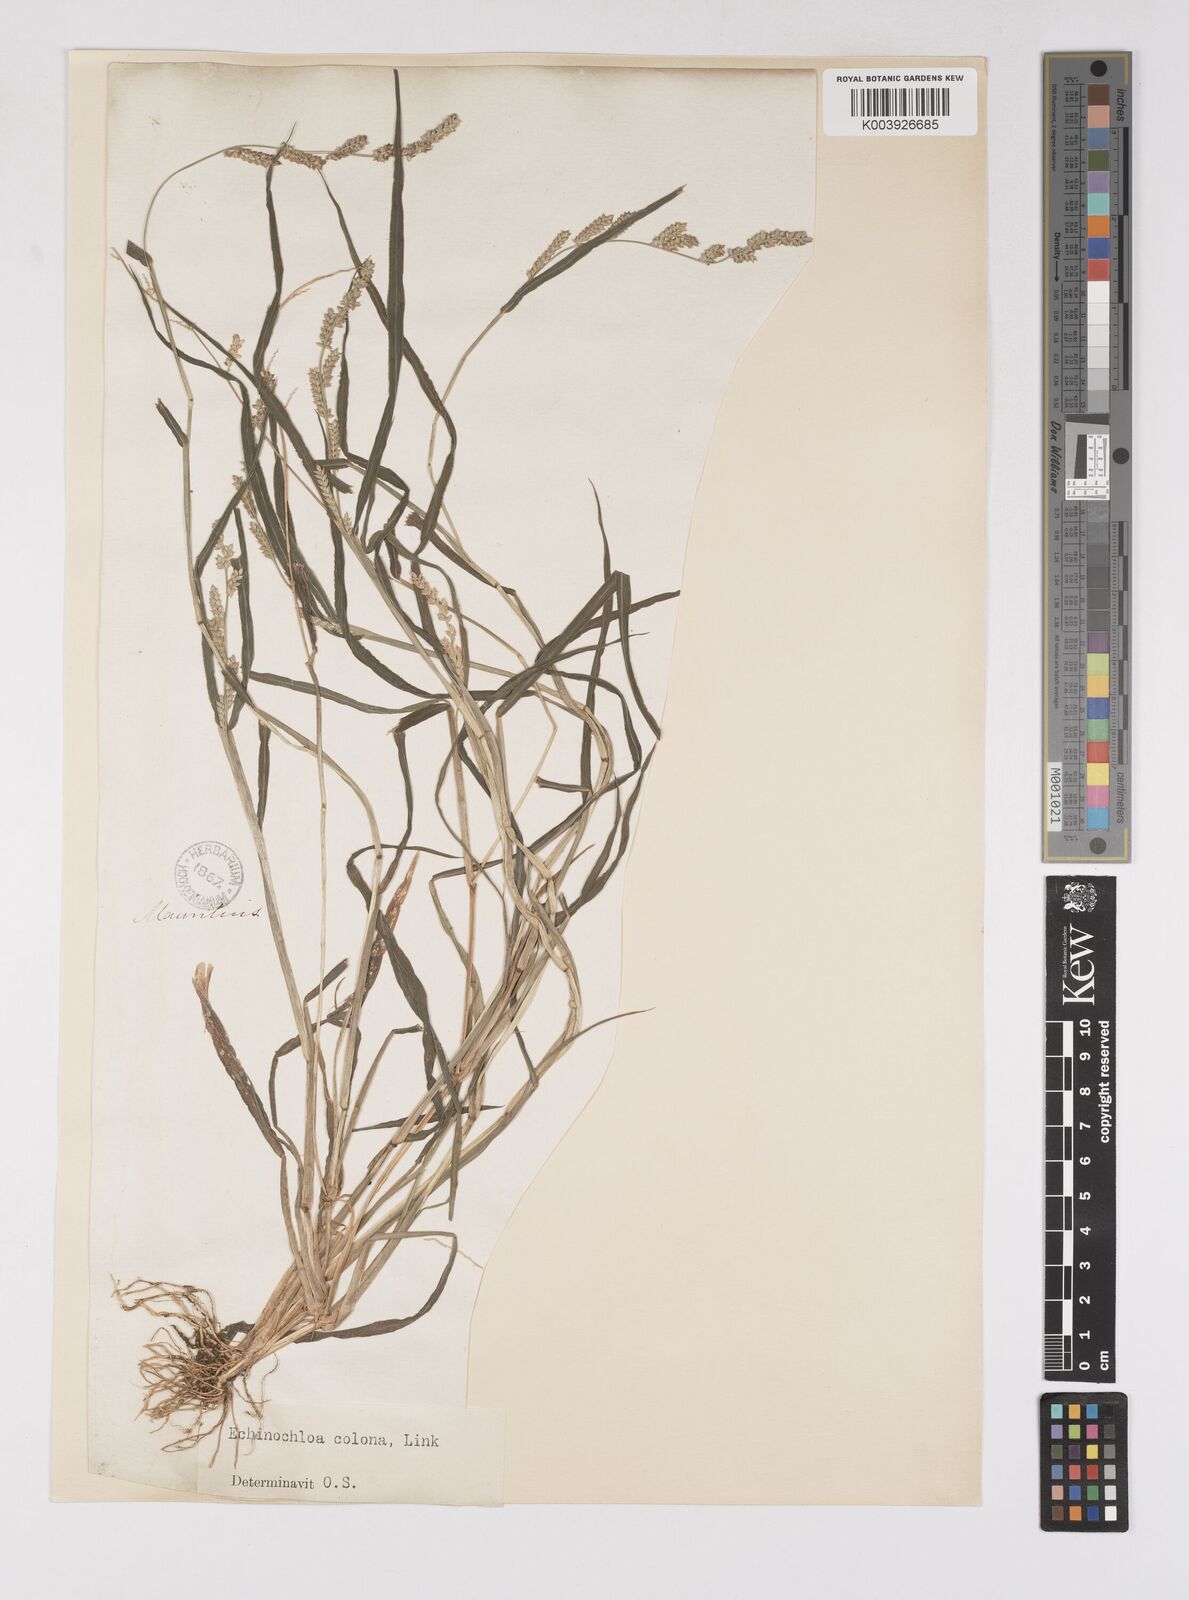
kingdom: Plantae
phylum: Tracheophyta
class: Liliopsida
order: Poales
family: Poaceae
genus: Echinochloa
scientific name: Echinochloa colonum
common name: Jungle rice
